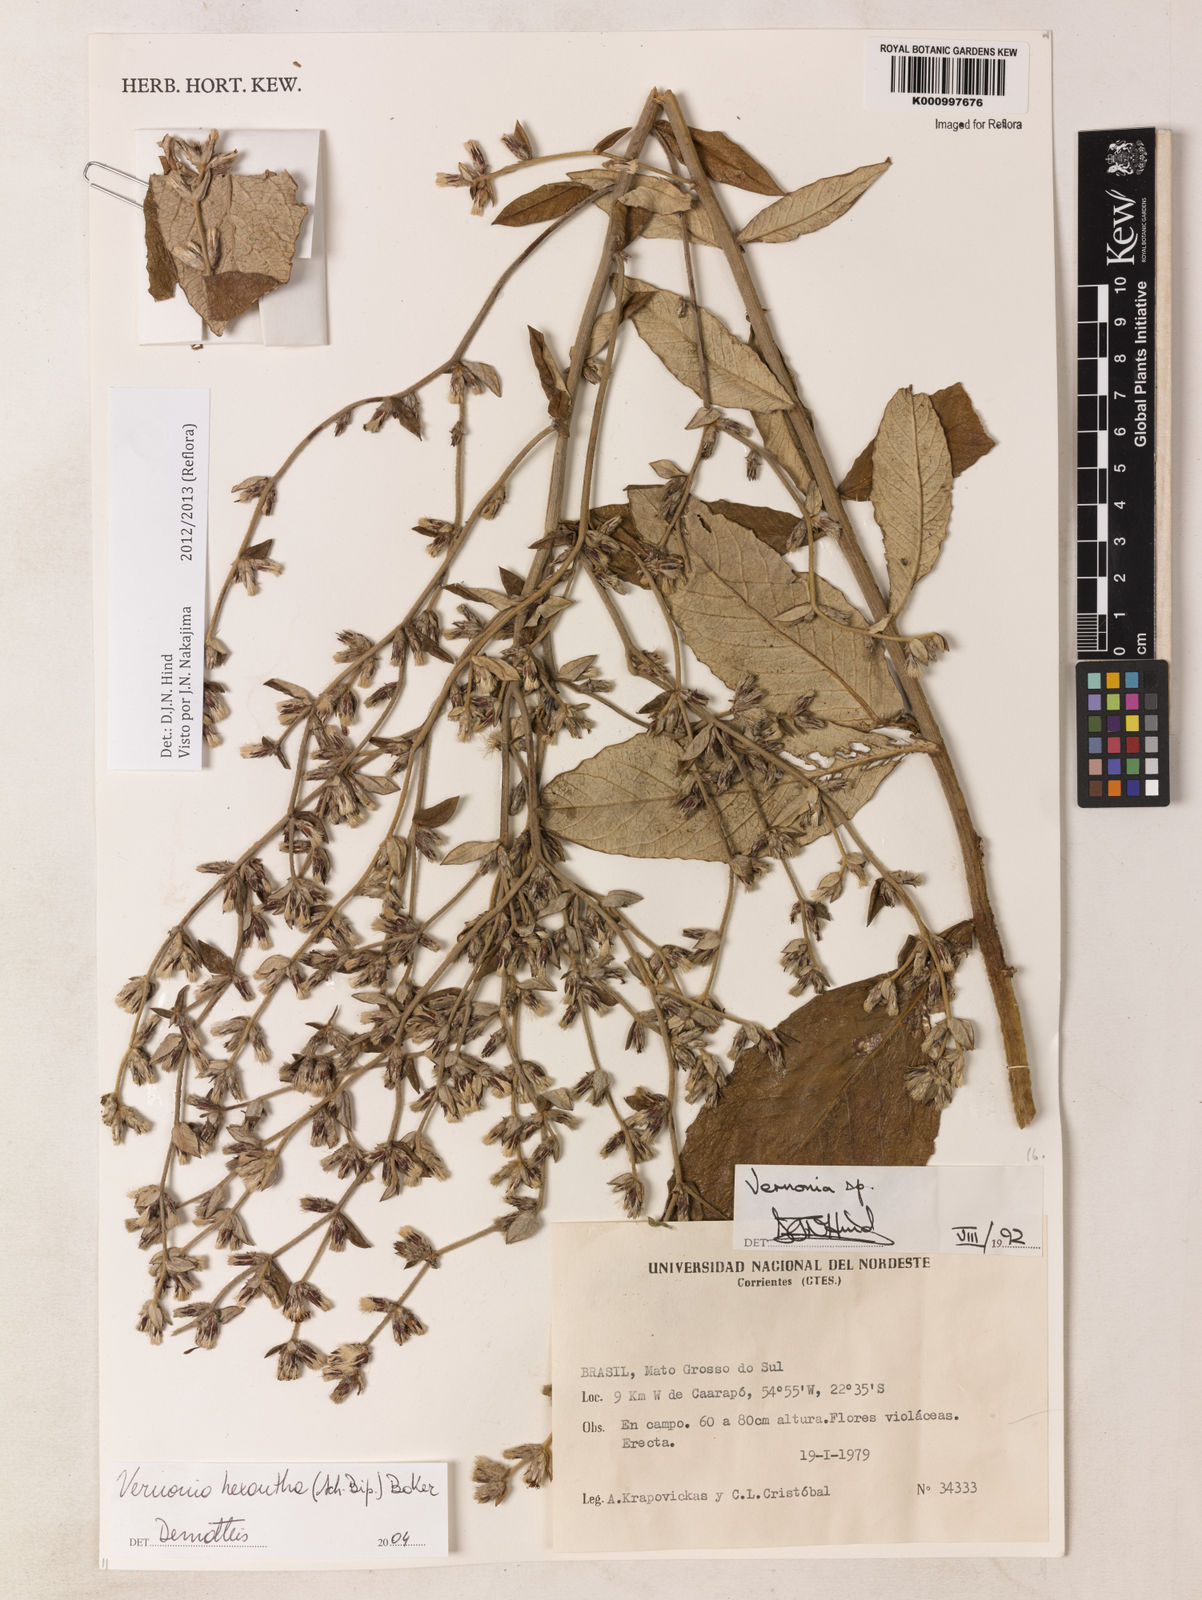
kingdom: Plantae
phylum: Tracheophyta
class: Magnoliopsida
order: Asterales
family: Asteraceae
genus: Stenocephalum
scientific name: Stenocephalum hexanthum
